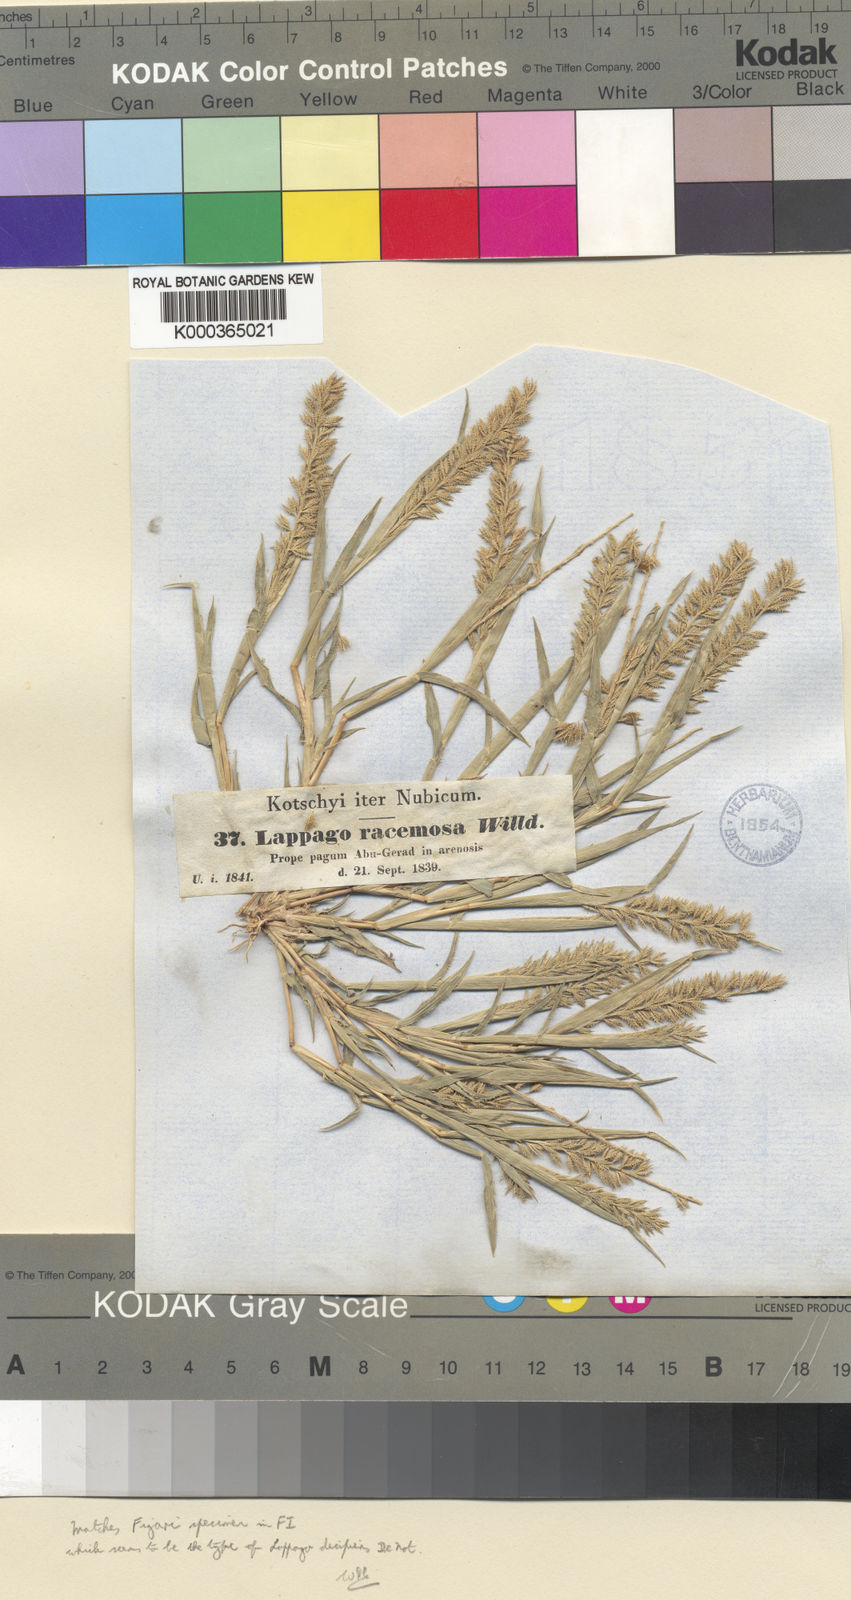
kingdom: Plantae
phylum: Tracheophyta
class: Liliopsida
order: Poales
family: Poaceae
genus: Tragus
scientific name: Tragus racemosus
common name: European bur-grass
